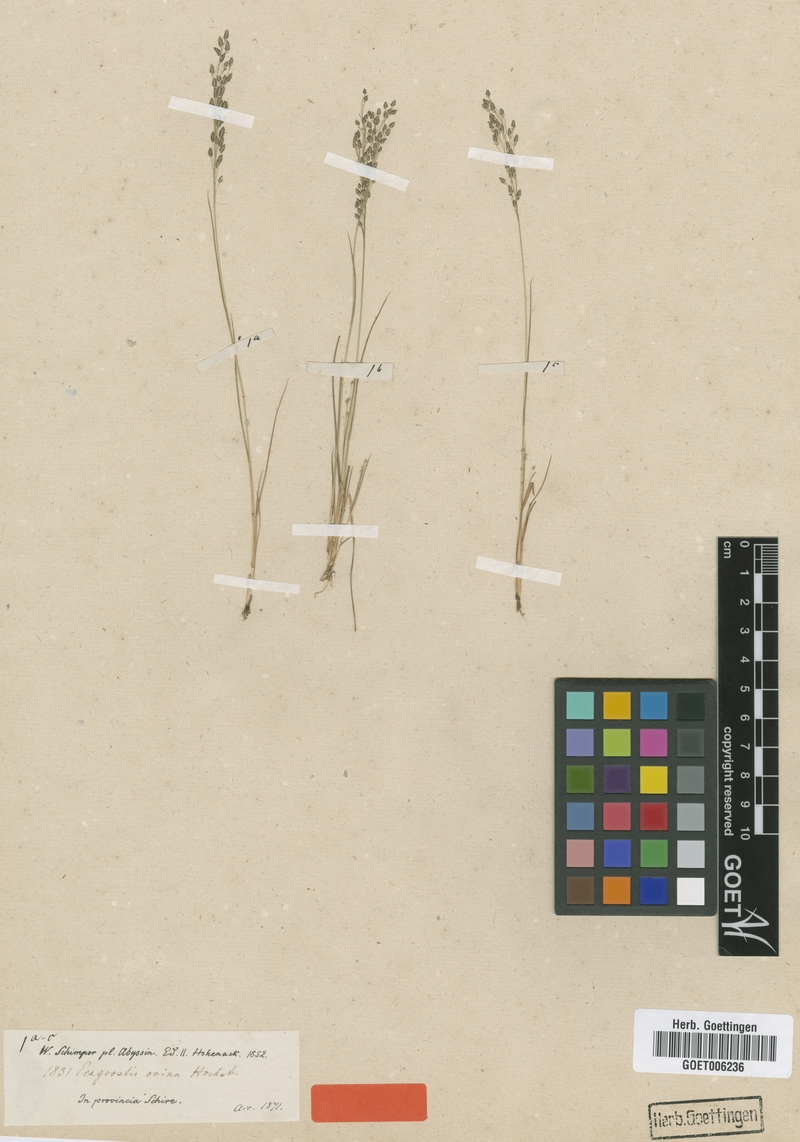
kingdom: Plantae
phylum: Tracheophyta
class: Liliopsida
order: Poales
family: Poaceae
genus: Eragrostis
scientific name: Eragrostis gangetica
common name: Slimflower lovegrass
